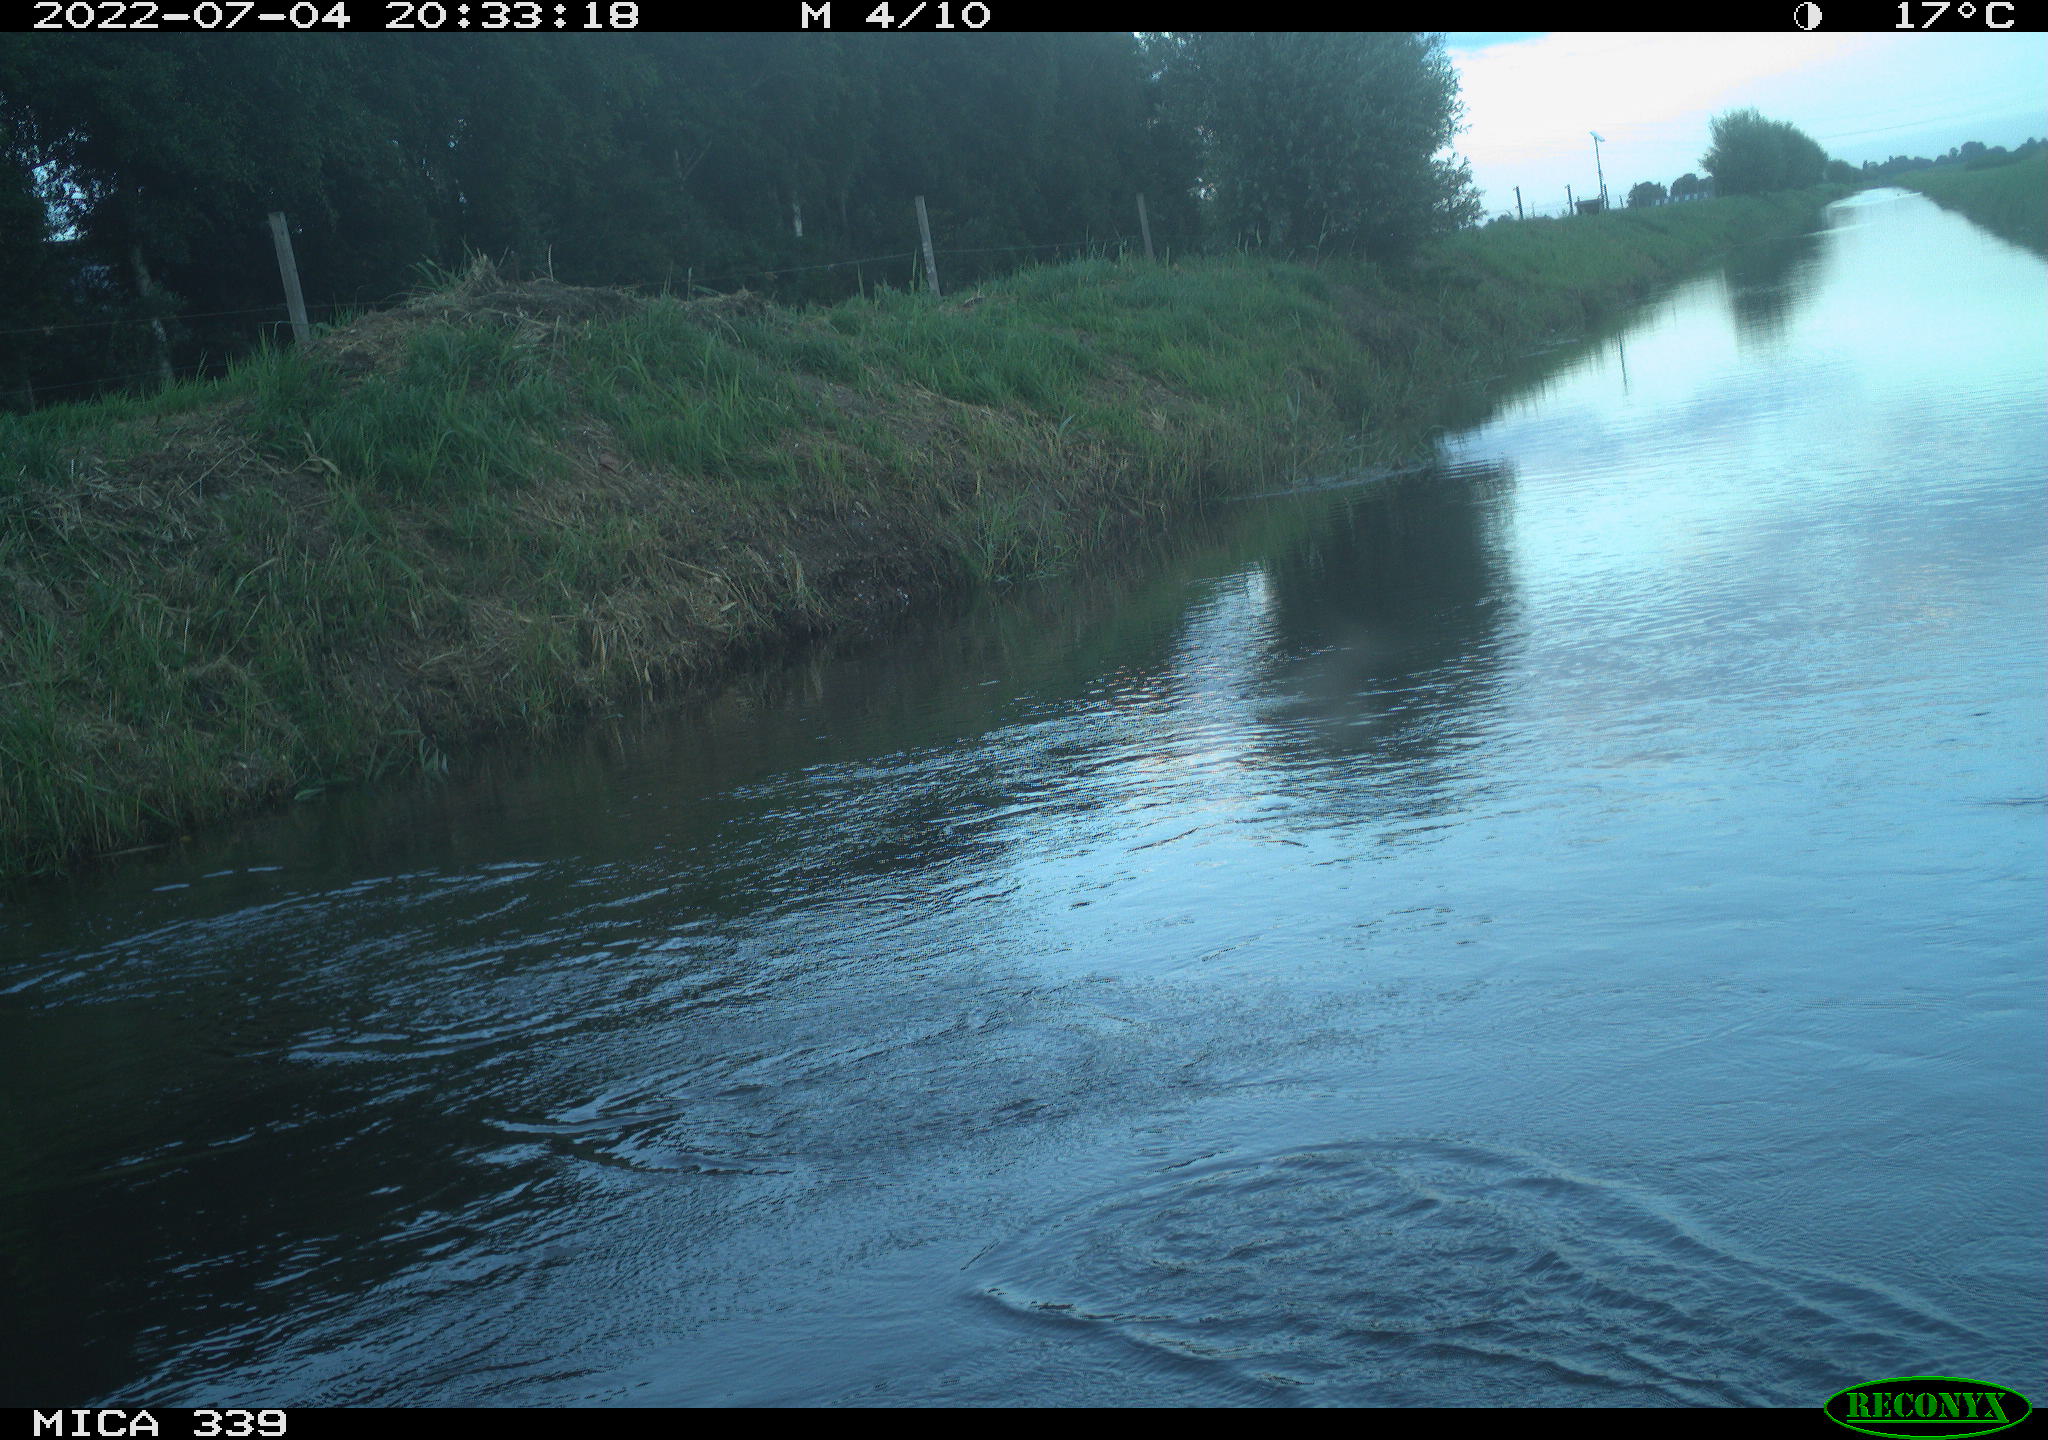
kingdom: Animalia
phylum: Chordata
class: Aves
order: Pelecaniformes
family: Ardeidae
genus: Ardea
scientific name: Ardea cinerea
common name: Grey heron
